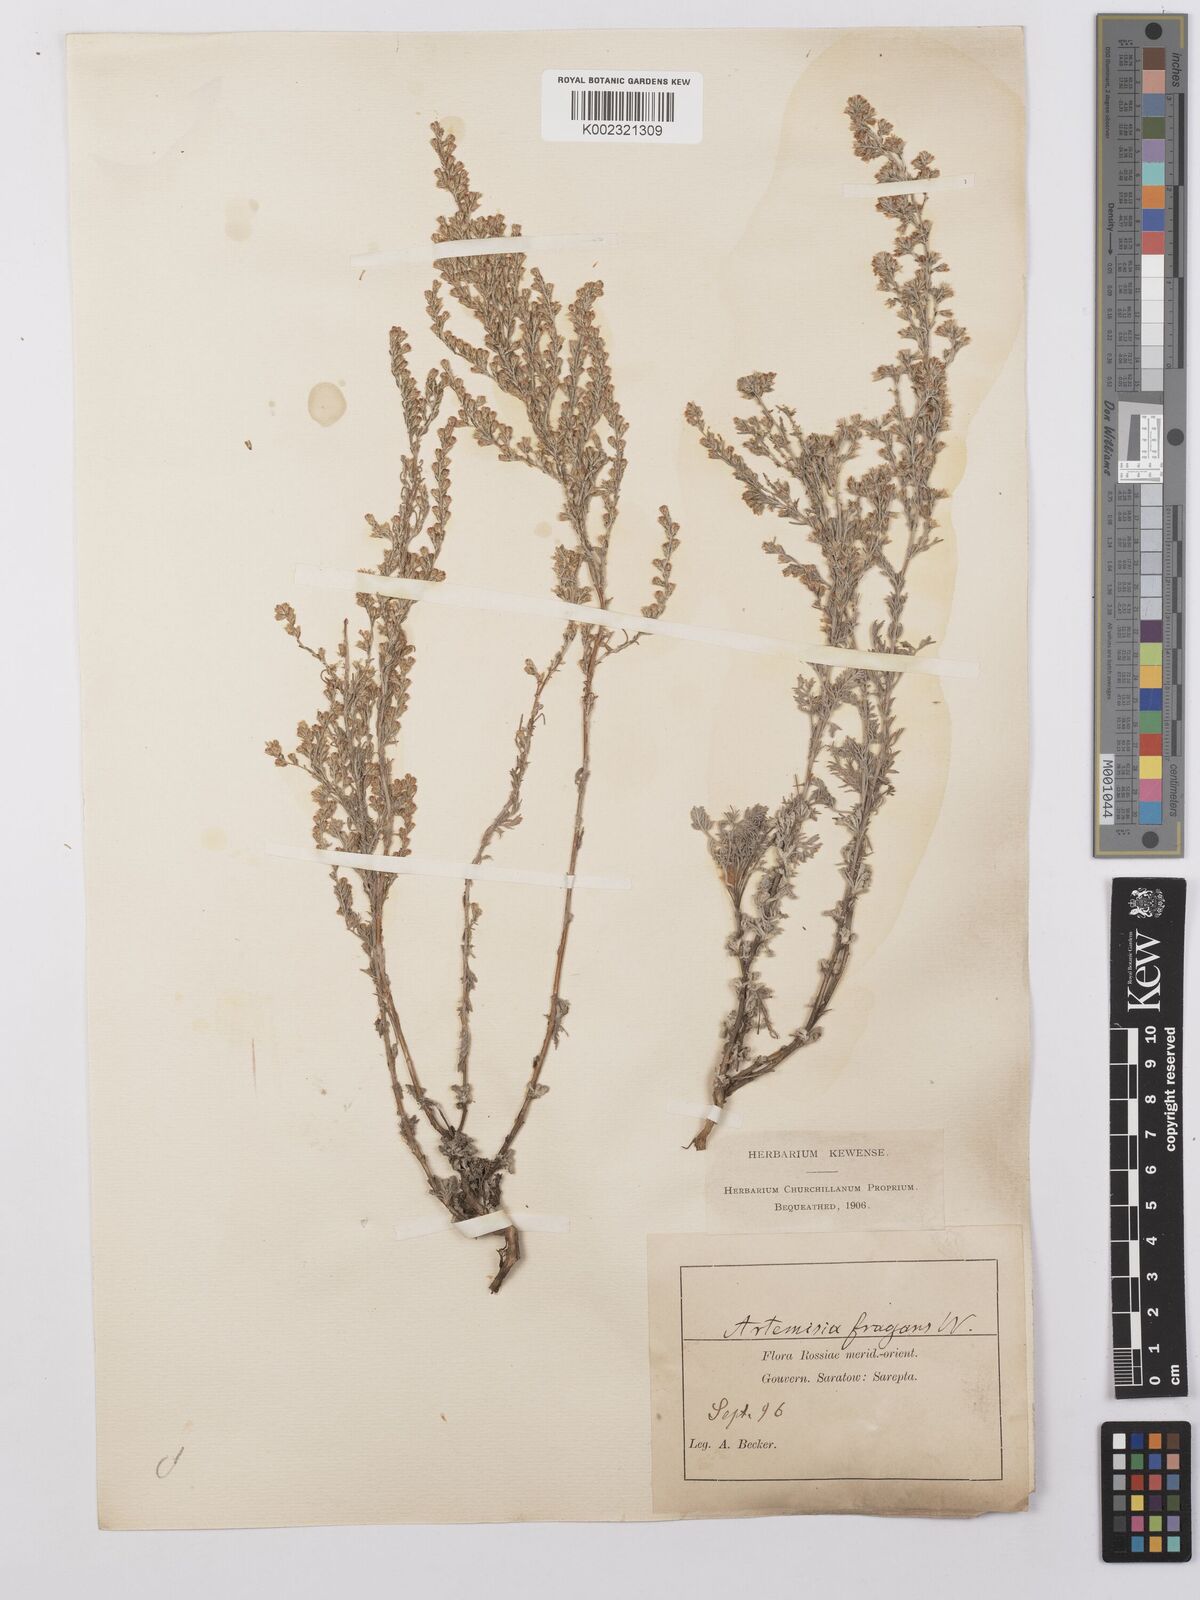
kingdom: Plantae
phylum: Tracheophyta
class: Magnoliopsida
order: Asterales
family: Asteraceae
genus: Artemisia
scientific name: Artemisia fragrans
